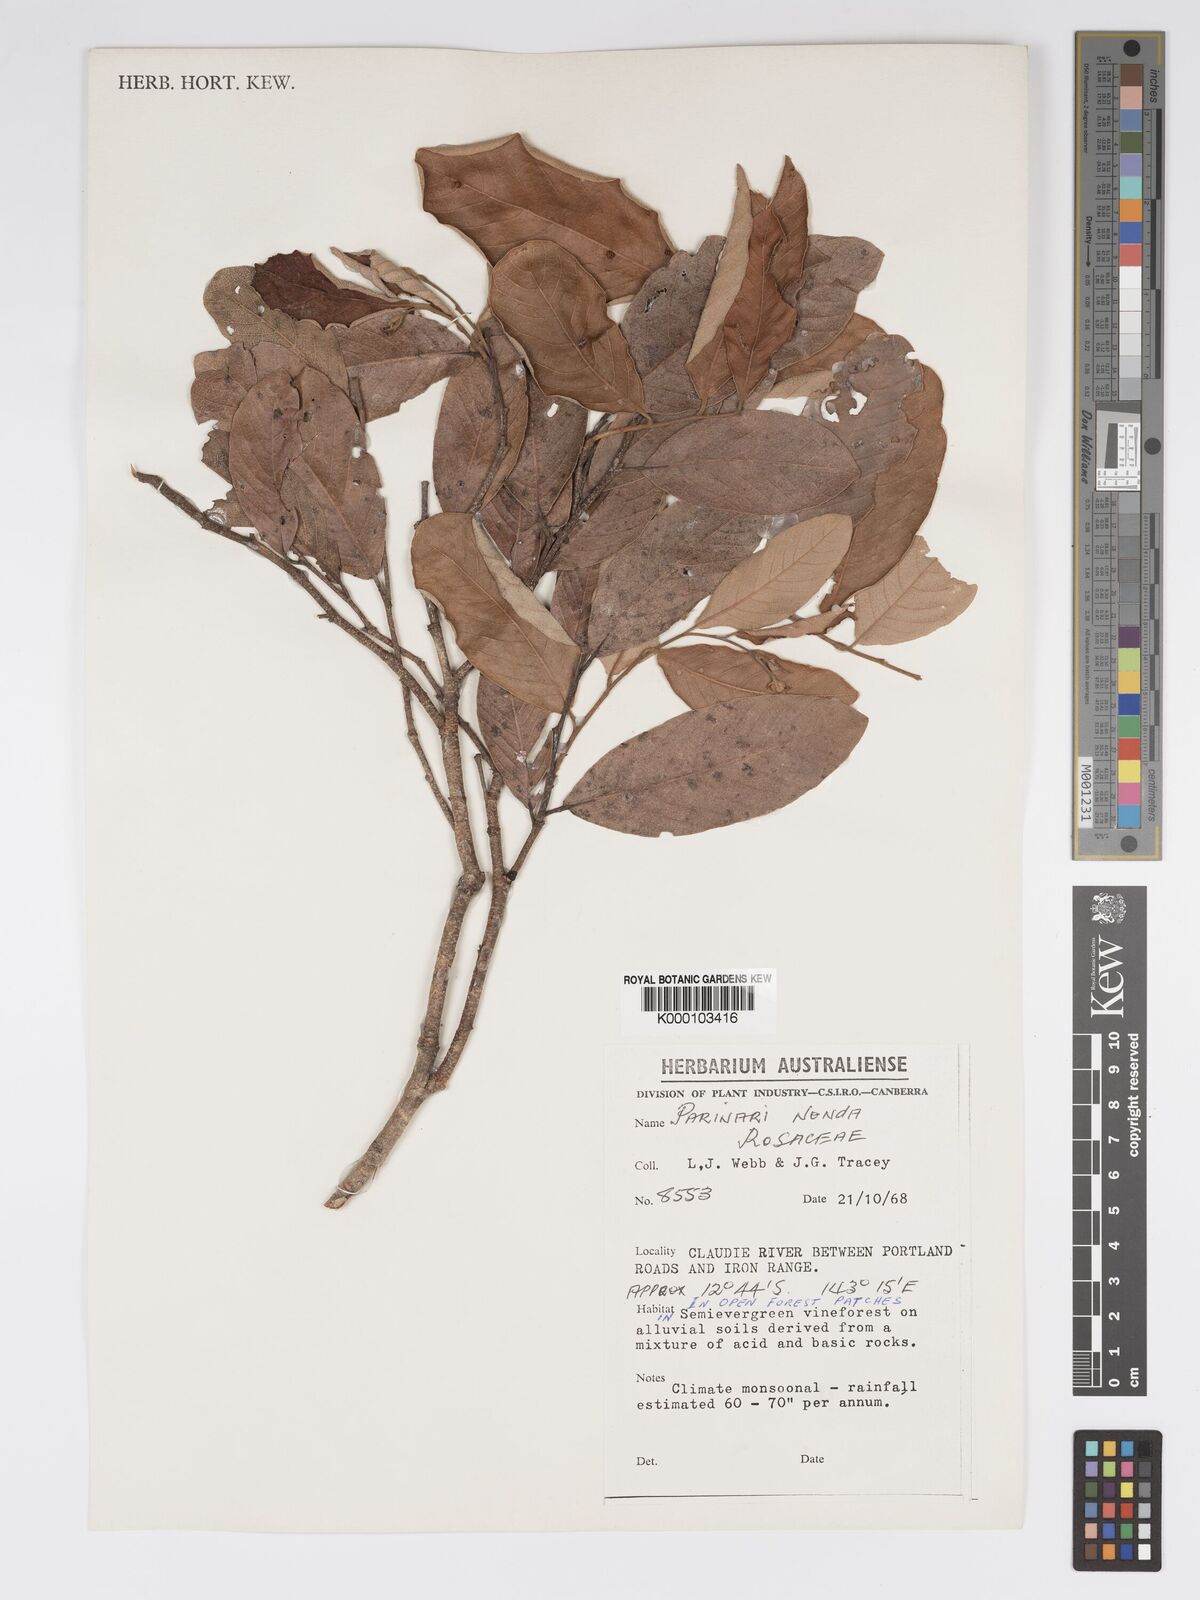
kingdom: Plantae
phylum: Tracheophyta
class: Magnoliopsida
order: Malpighiales
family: Chrysobalanaceae
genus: Parinari
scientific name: Parinari nonda
